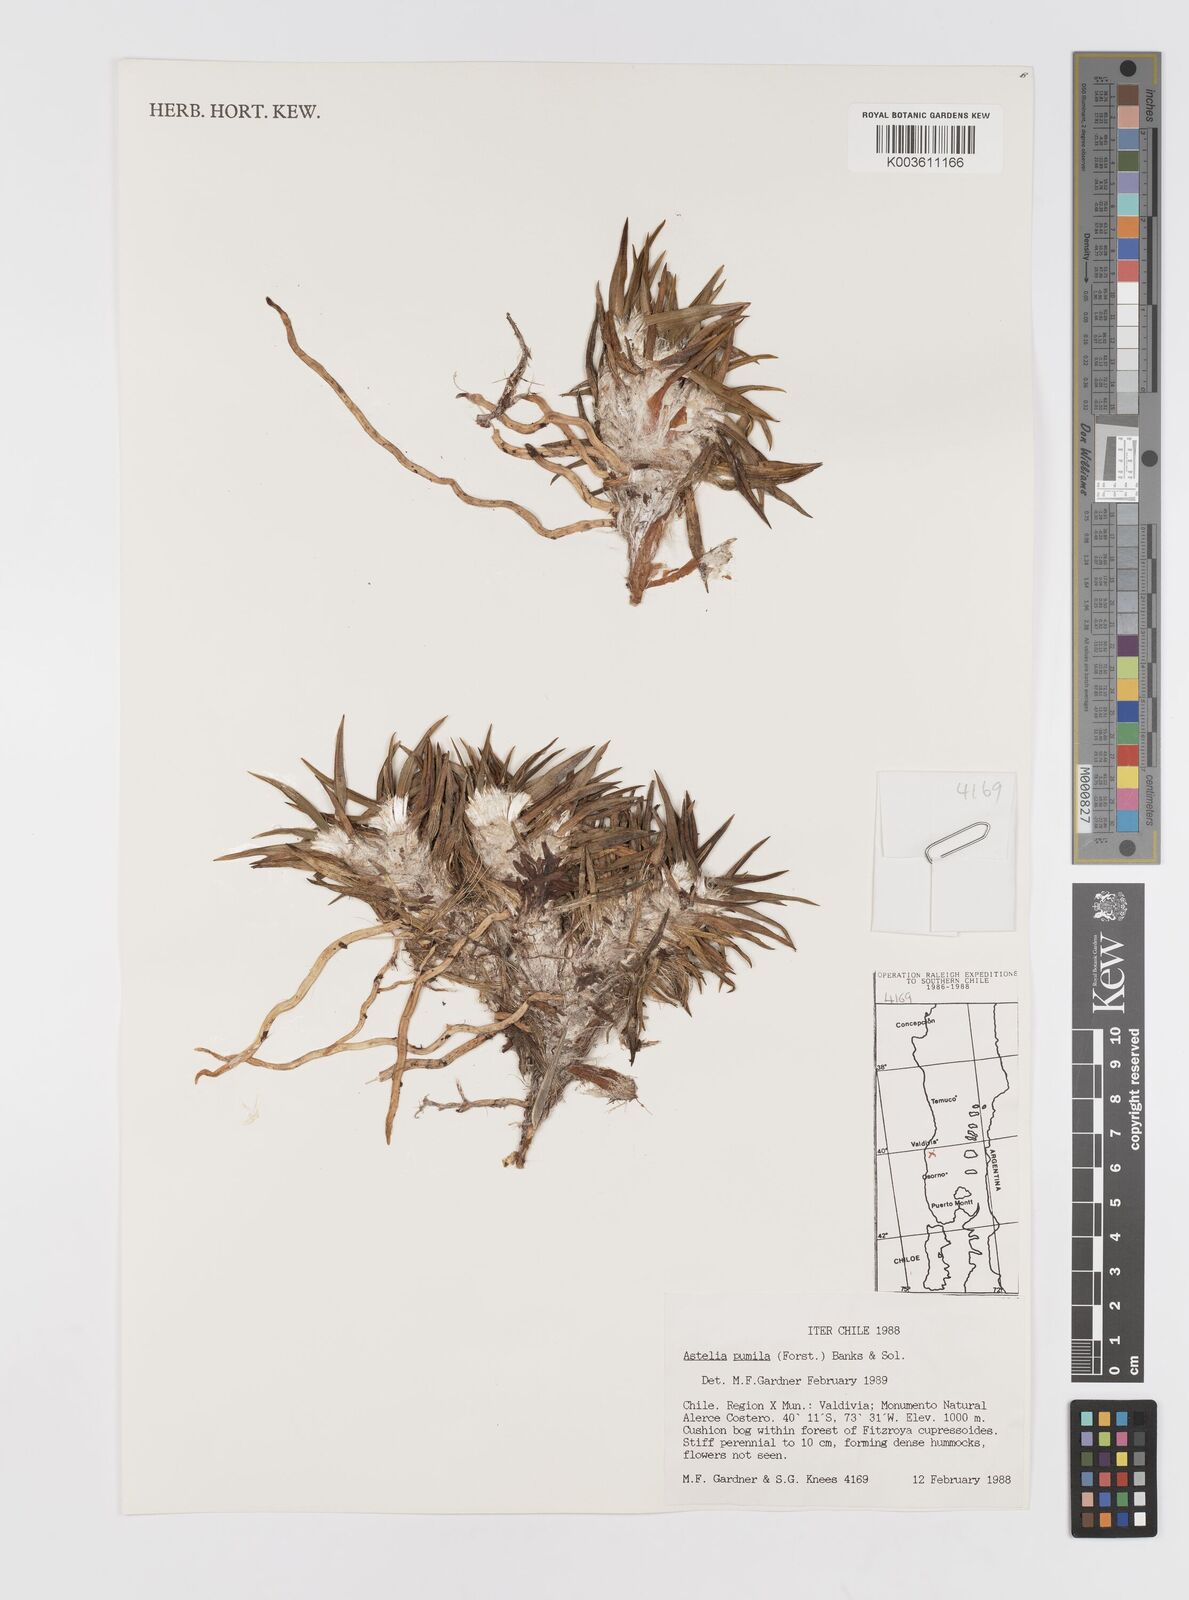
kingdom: Plantae
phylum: Tracheophyta
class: Liliopsida
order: Asparagales
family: Asteliaceae
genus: Astelia
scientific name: Astelia pumila
